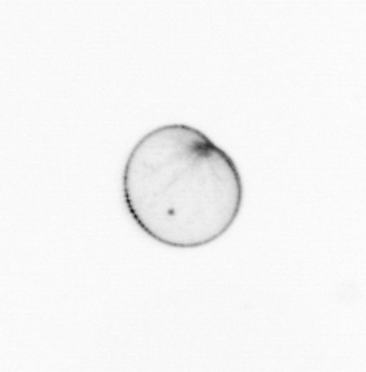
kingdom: Chromista
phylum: Myzozoa
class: Dinophyceae
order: Noctilucales
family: Noctilucaceae
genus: Noctiluca
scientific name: Noctiluca scintillans
